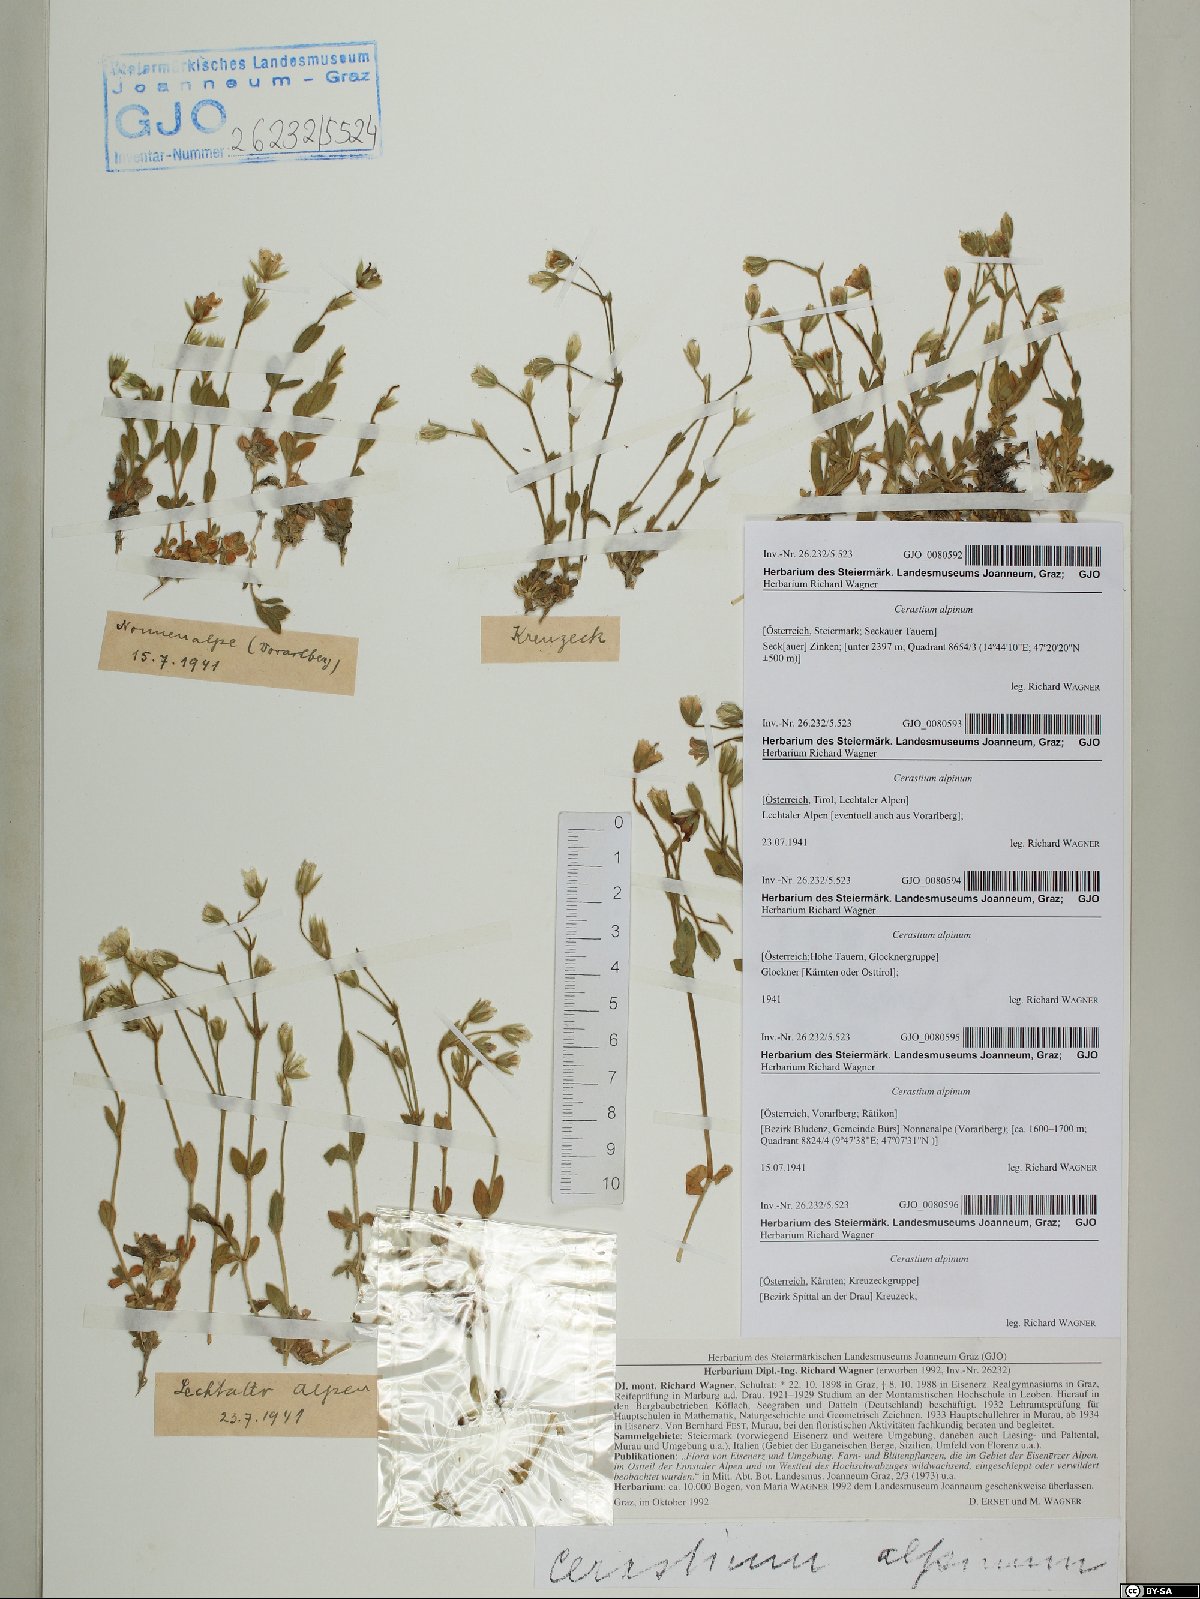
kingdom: Plantae
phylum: Tracheophyta
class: Magnoliopsida
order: Caryophyllales
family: Caryophyllaceae
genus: Cerastium
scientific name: Cerastium alpinum
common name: Alpine mouse-ear
